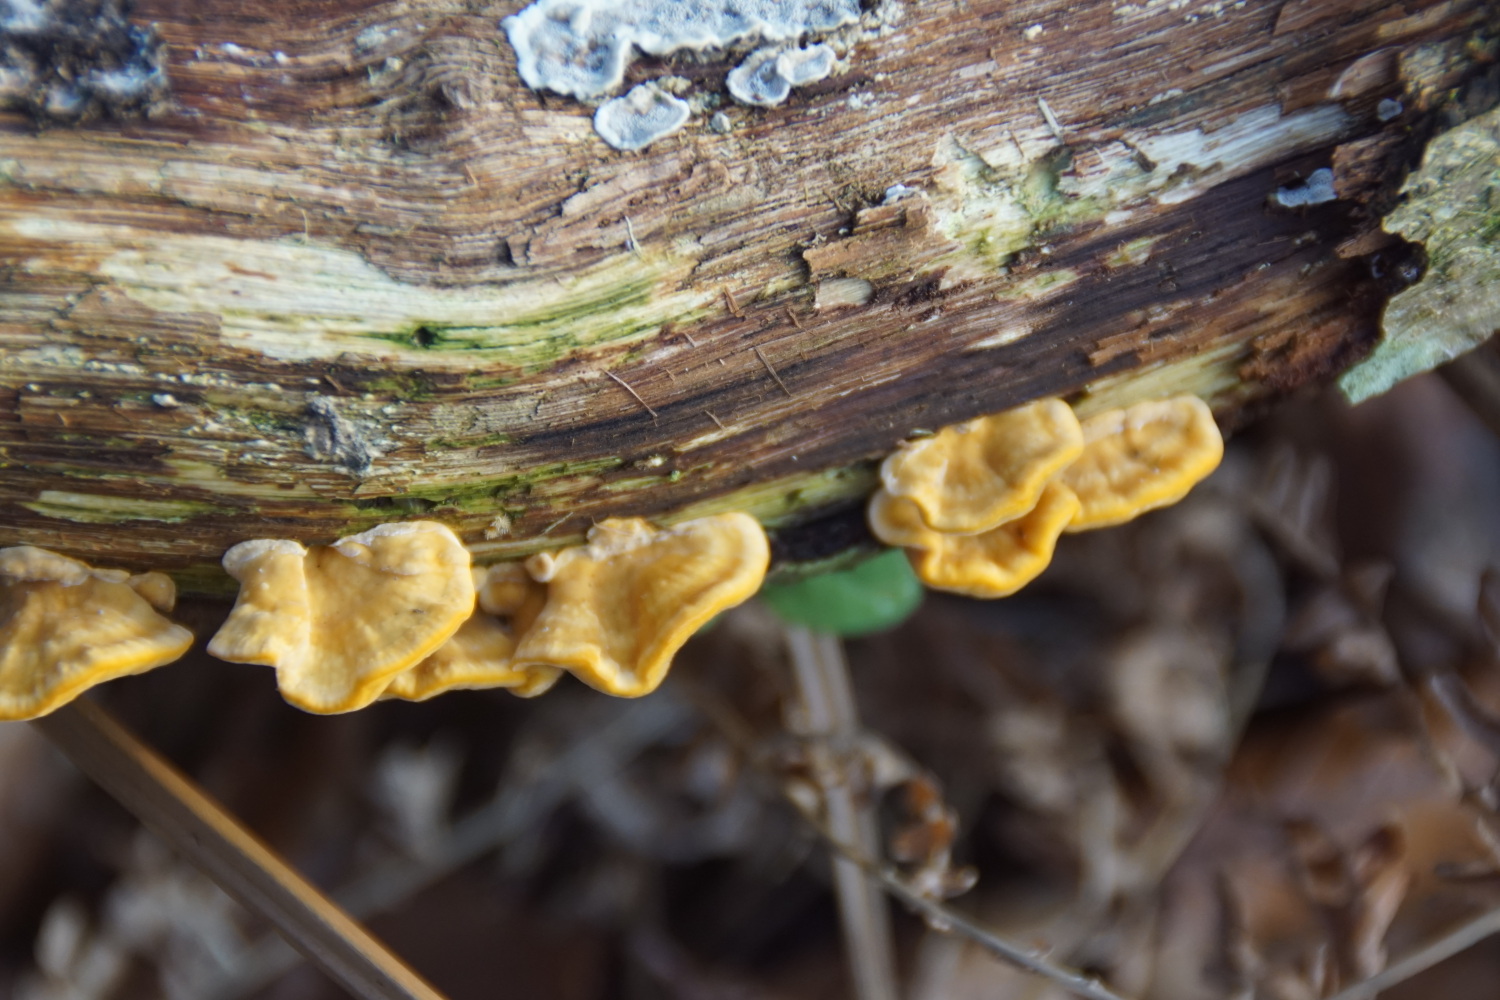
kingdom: Fungi
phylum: Basidiomycota
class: Agaricomycetes
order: Russulales
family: Stereaceae
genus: Stereum
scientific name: Stereum hirsutum
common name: håret lædersvamp
